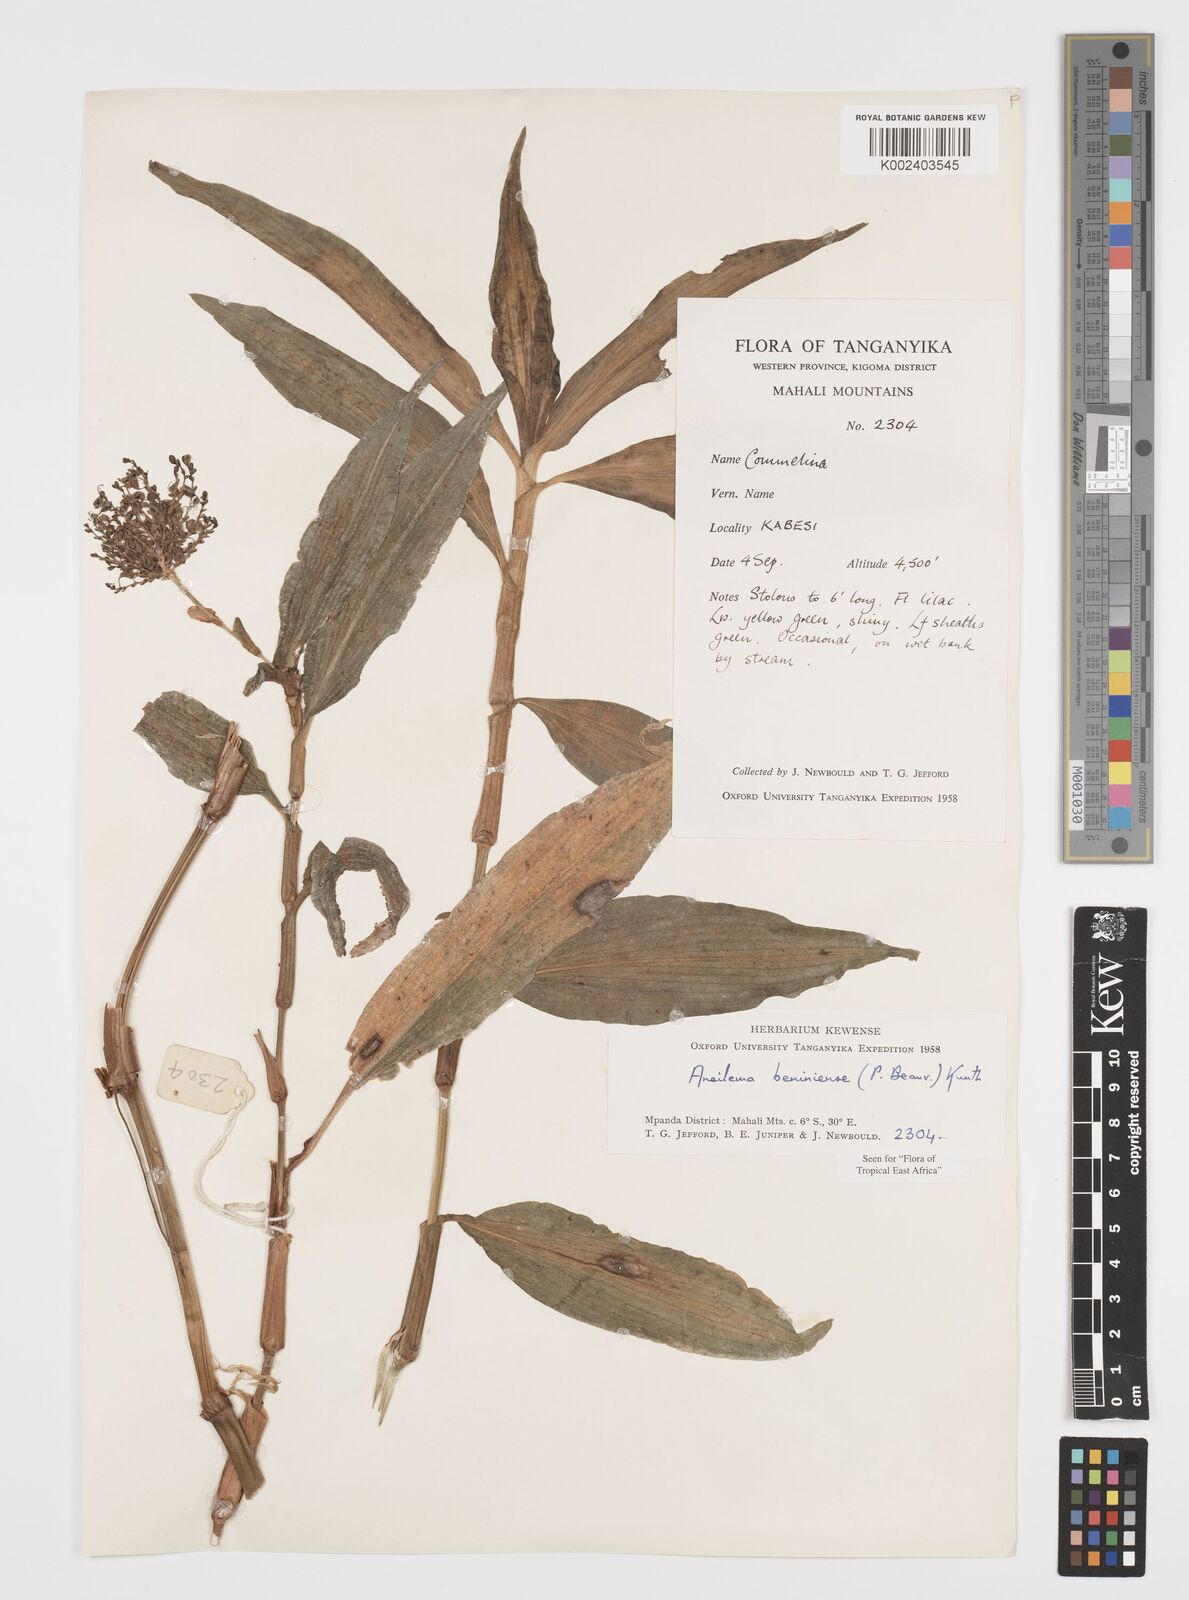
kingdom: Plantae
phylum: Tracheophyta
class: Liliopsida
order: Commelinales
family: Commelinaceae
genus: Aneilema
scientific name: Aneilema beniniense
